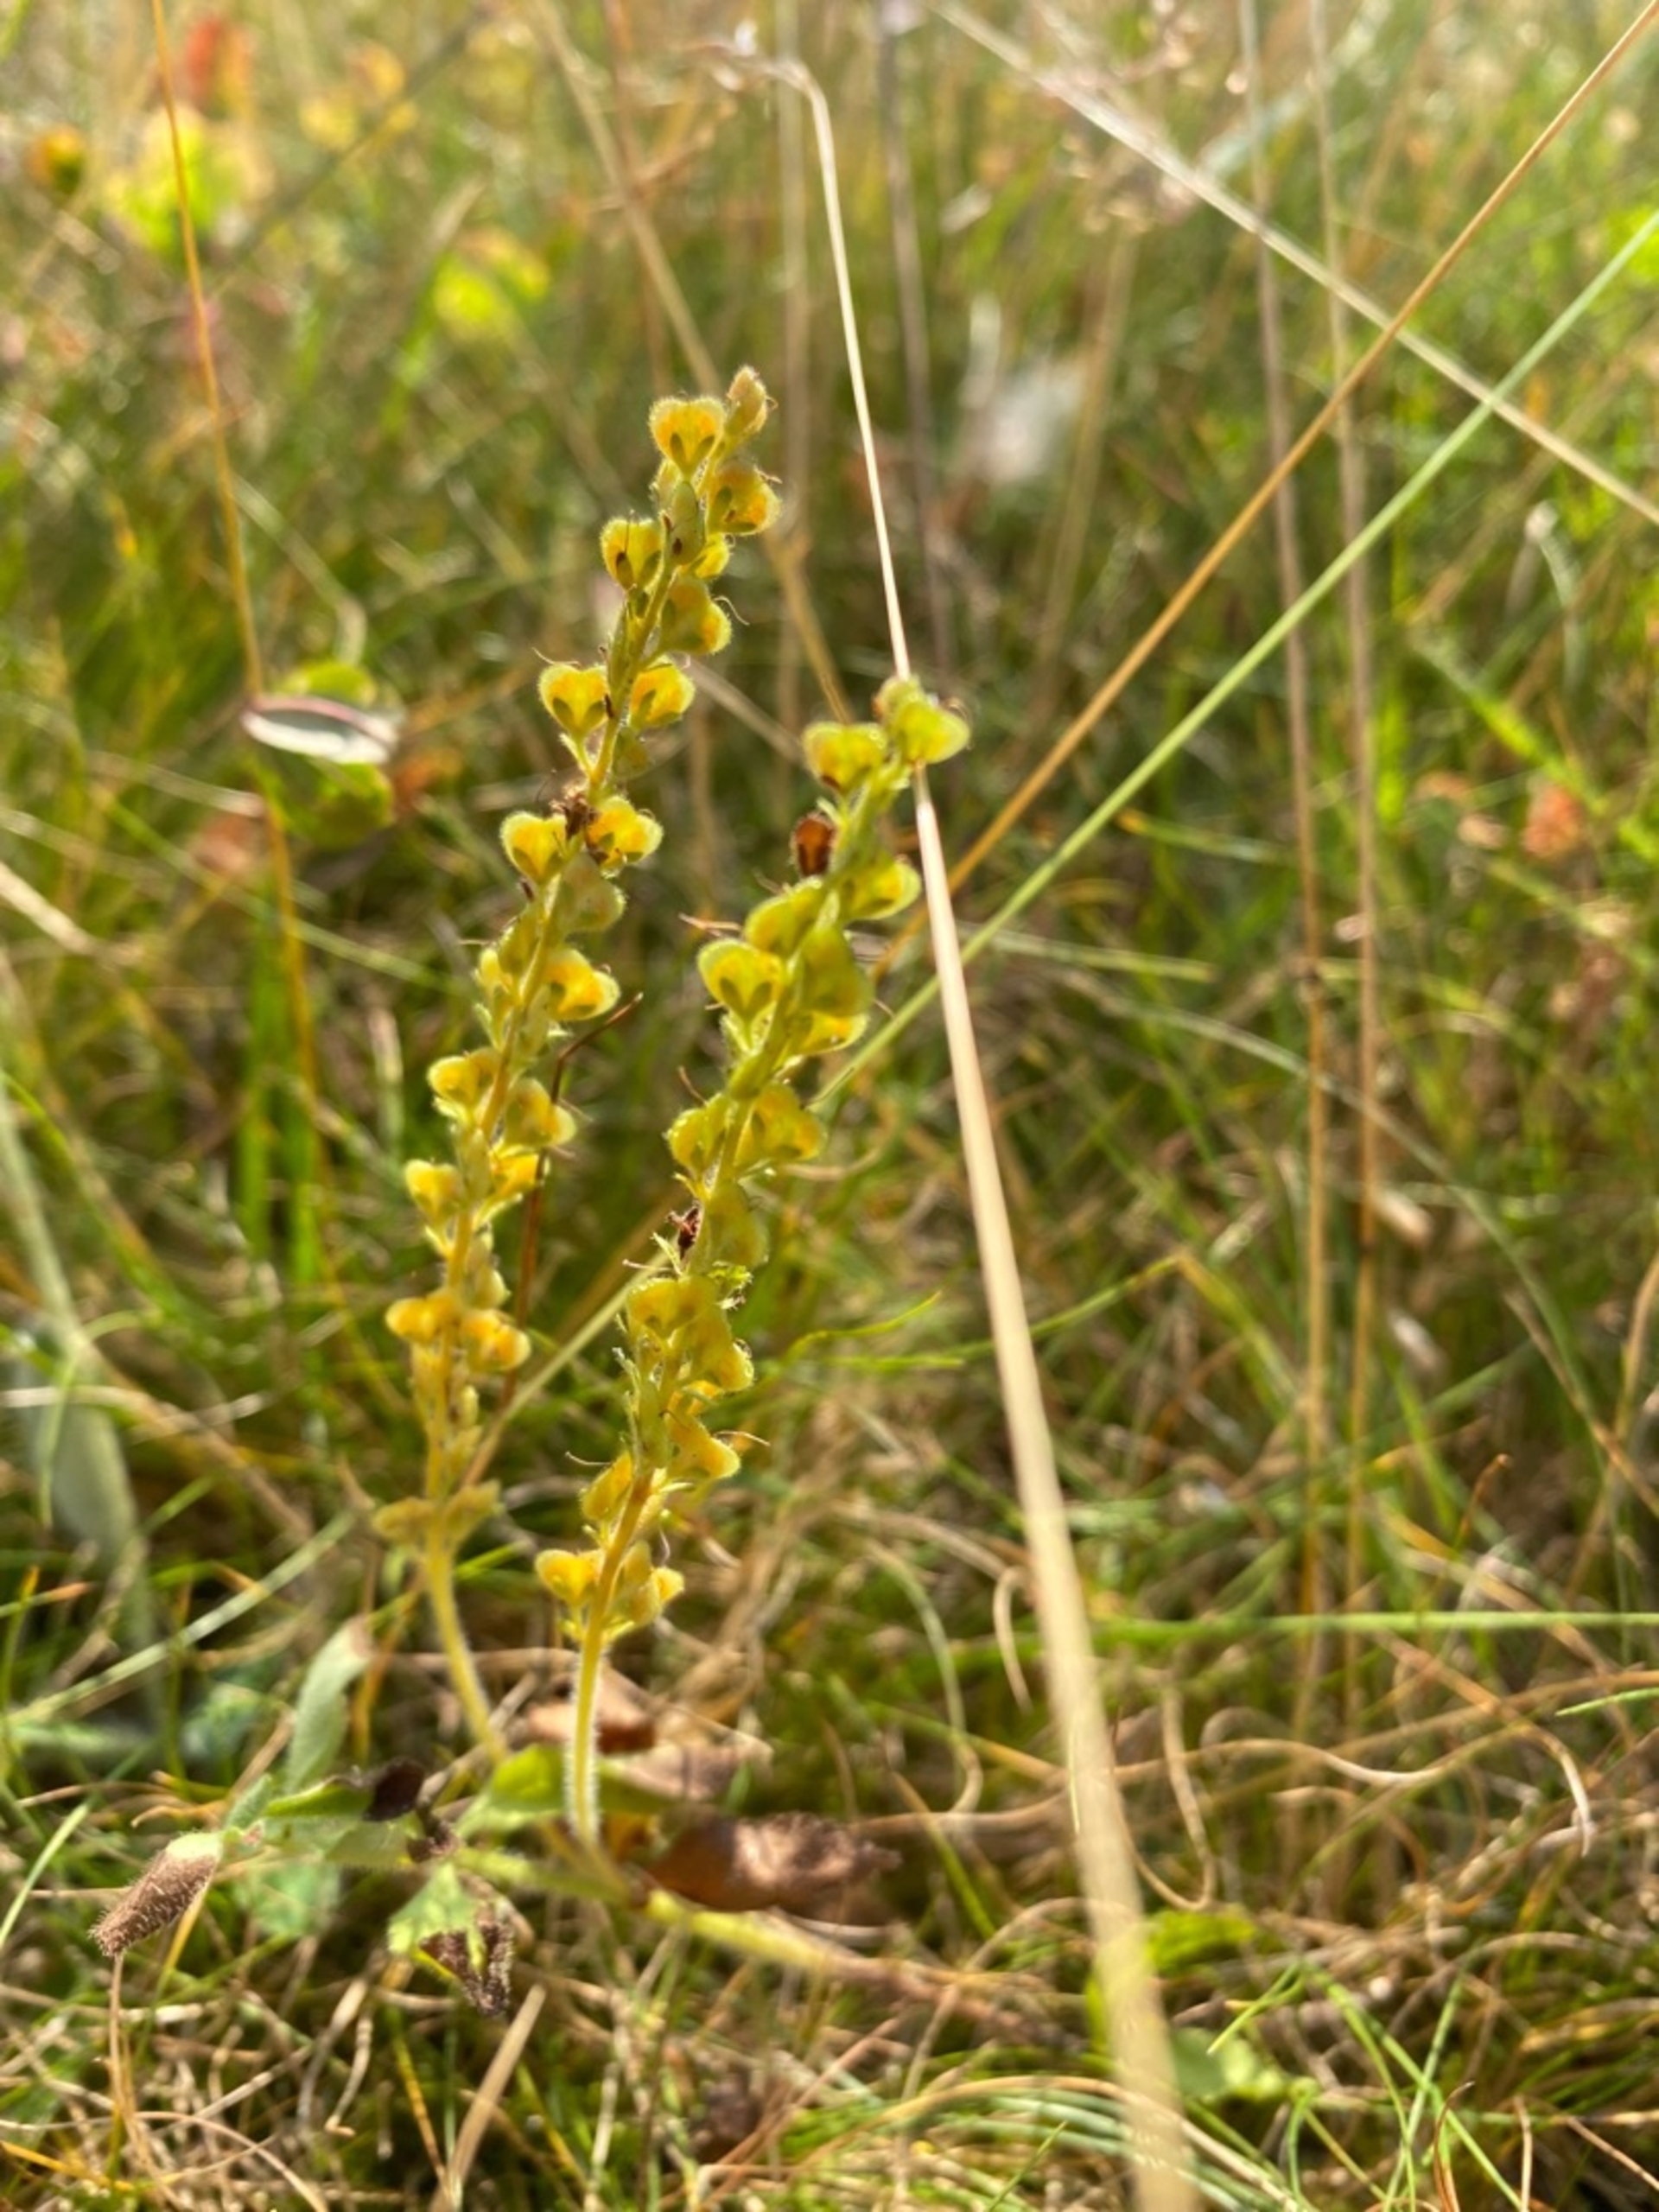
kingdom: Plantae
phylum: Tracheophyta
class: Magnoliopsida
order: Lamiales
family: Plantaginaceae
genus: Veronica
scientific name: Veronica officinalis
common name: Læge-ærenpris
